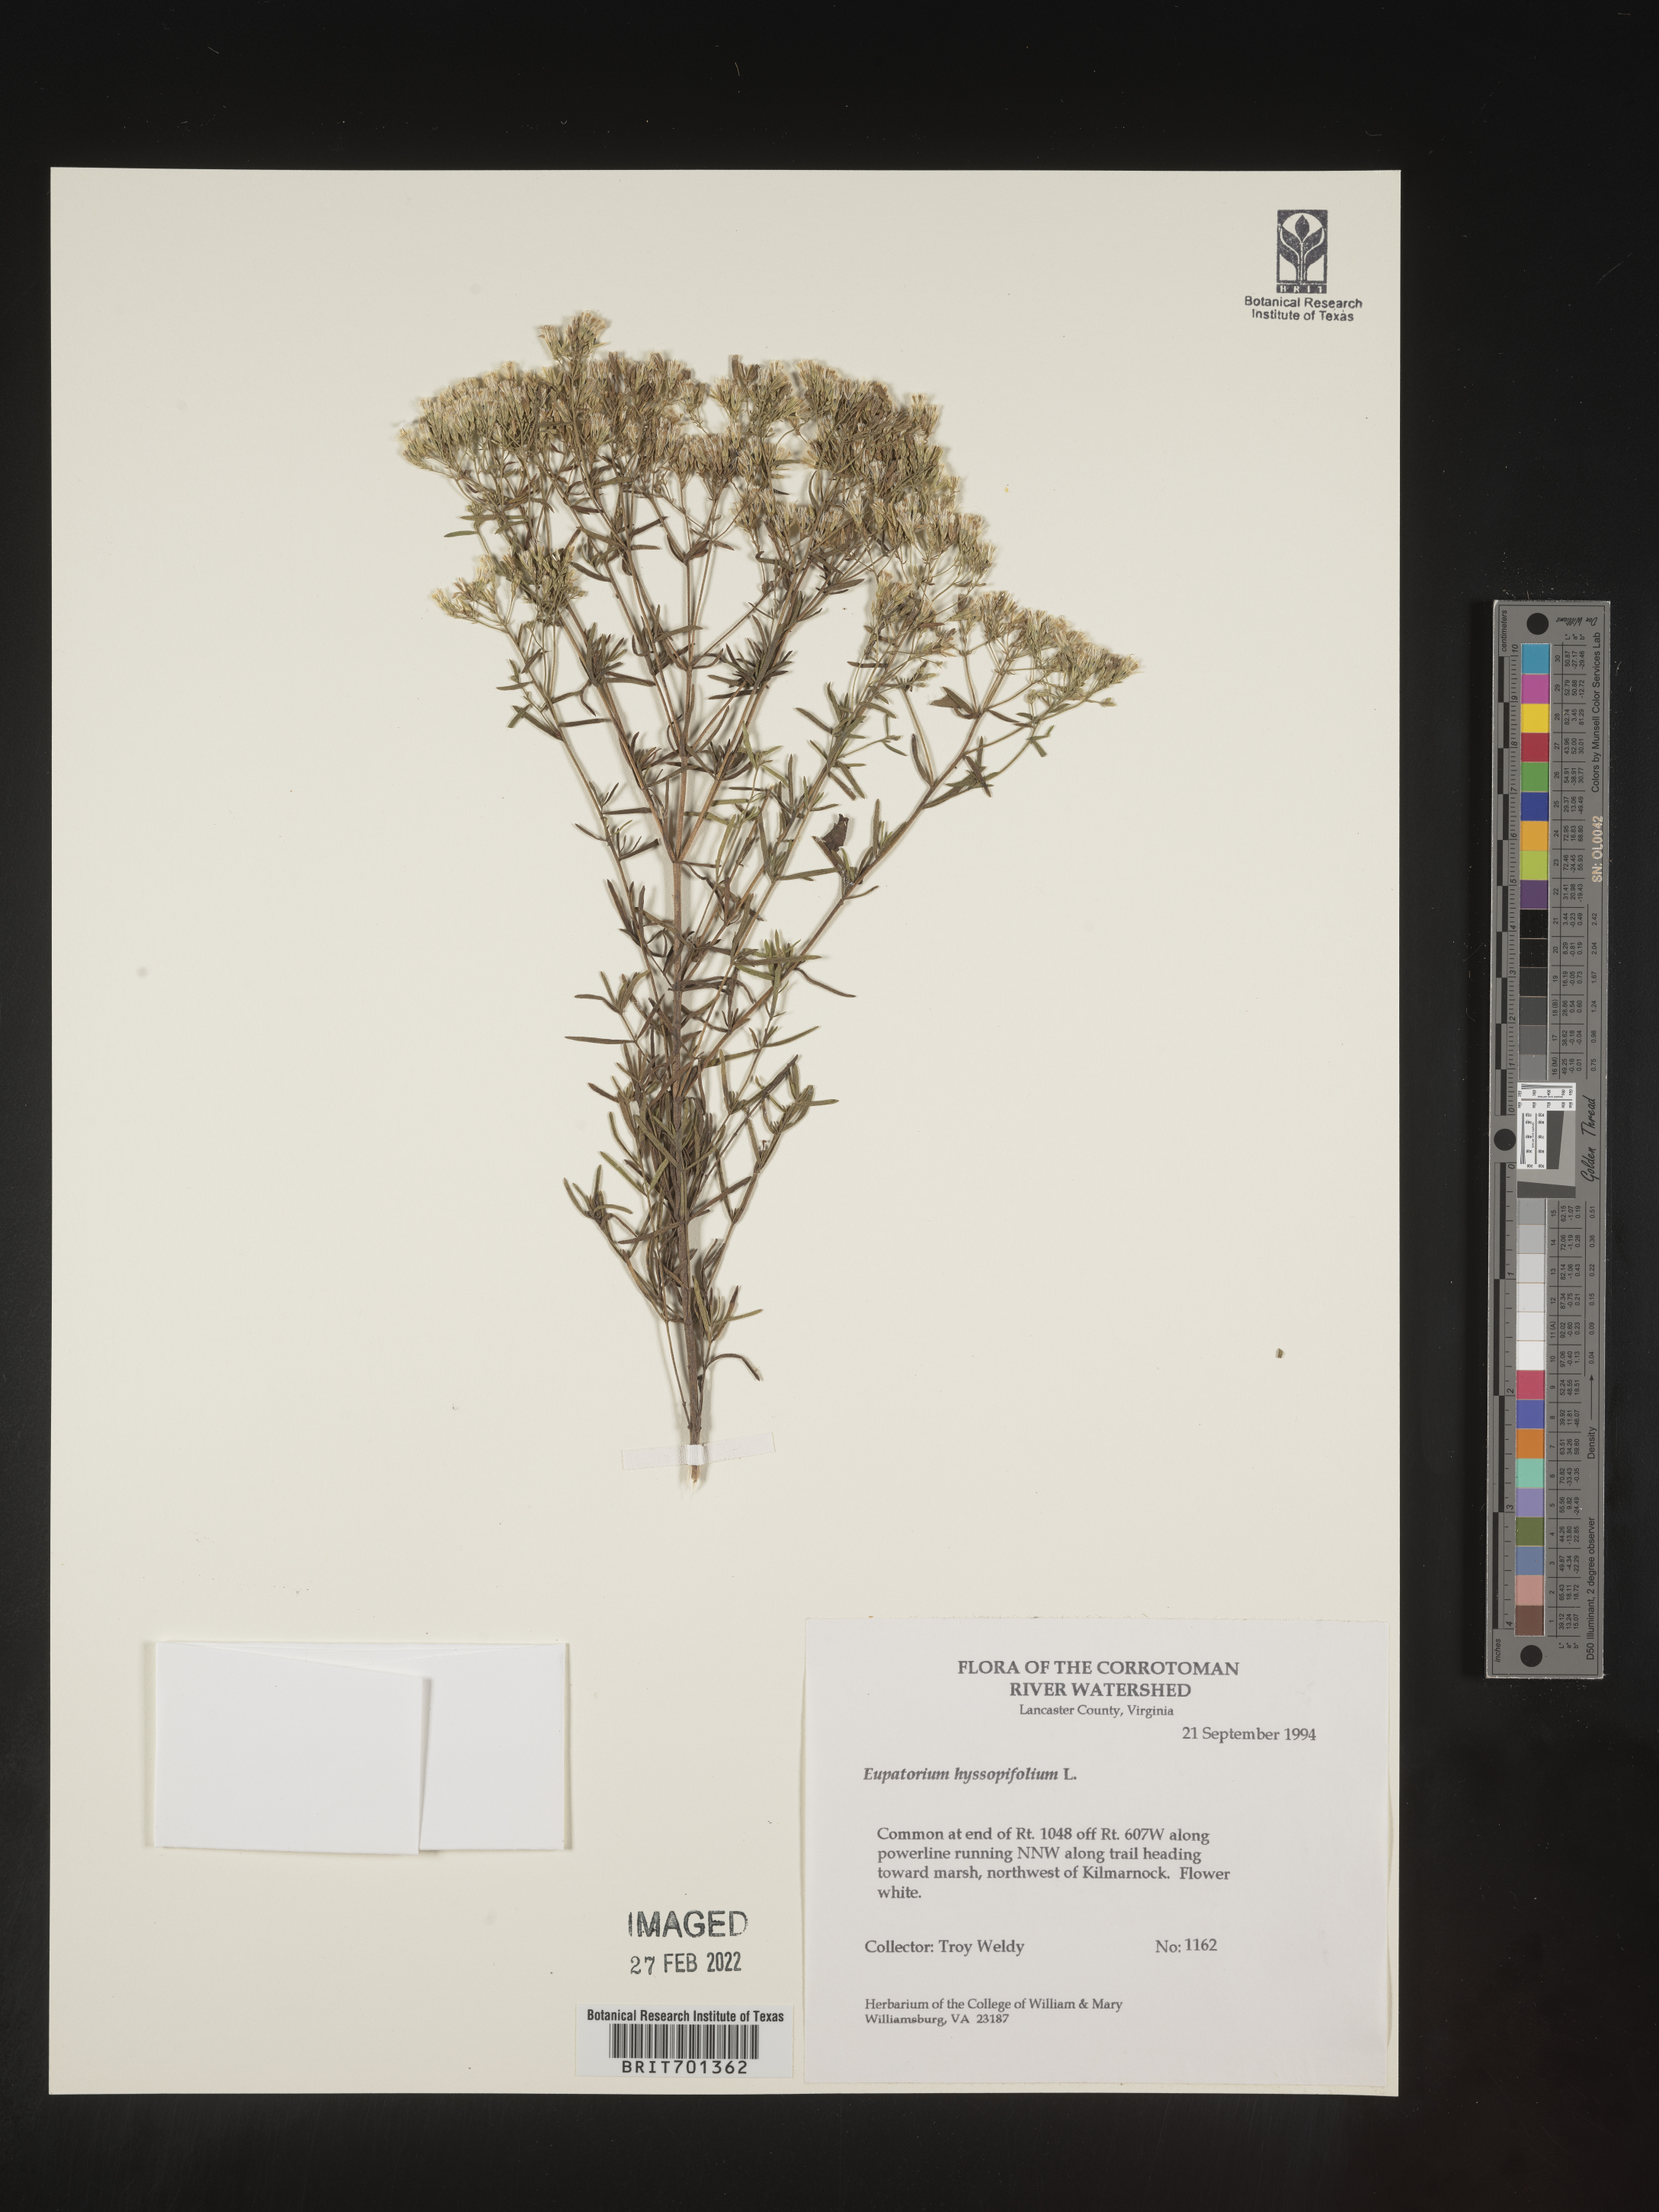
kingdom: Plantae
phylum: Tracheophyta
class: Magnoliopsida
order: Asterales
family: Asteraceae
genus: Eupatorium
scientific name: Eupatorium hyssopifolium
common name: Hyssop-leaf thoroughwort
